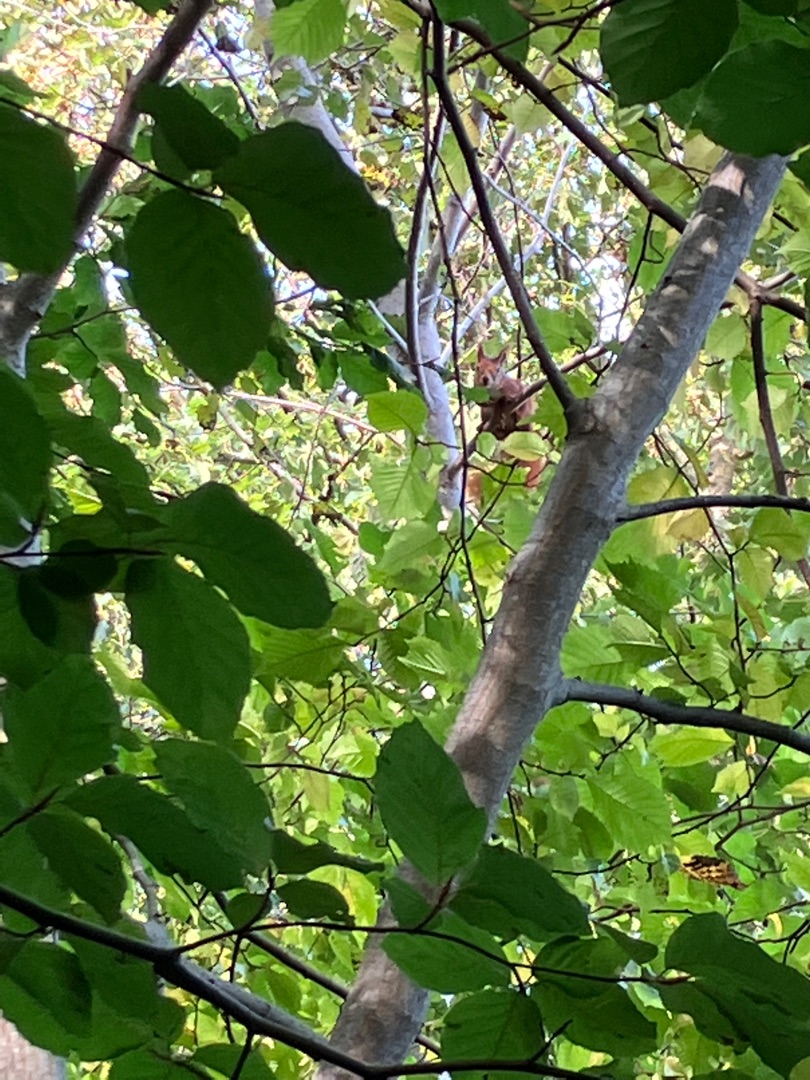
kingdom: Animalia
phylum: Chordata
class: Mammalia
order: Rodentia
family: Sciuridae
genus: Sciurus
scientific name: Sciurus vulgaris
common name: Egern
